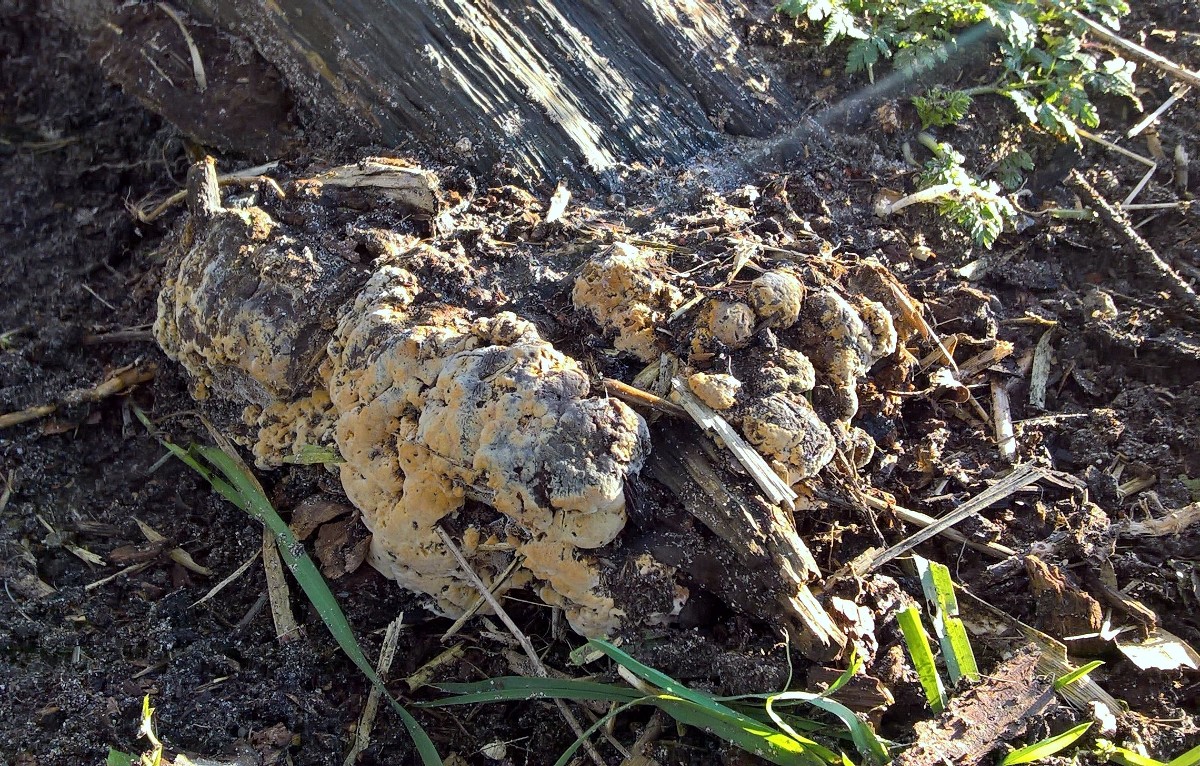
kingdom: Fungi
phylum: Basidiomycota
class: Agaricomycetes
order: Hymenochaetales
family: Hymenochaetaceae
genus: Xanthoporia
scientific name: Xanthoporia radiata
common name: elle-spejlporesvamp
